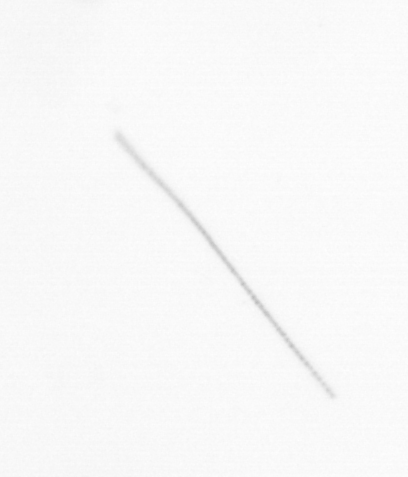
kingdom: Chromista
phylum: Ochrophyta
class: Bacillariophyceae
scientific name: Bacillariophyceae
